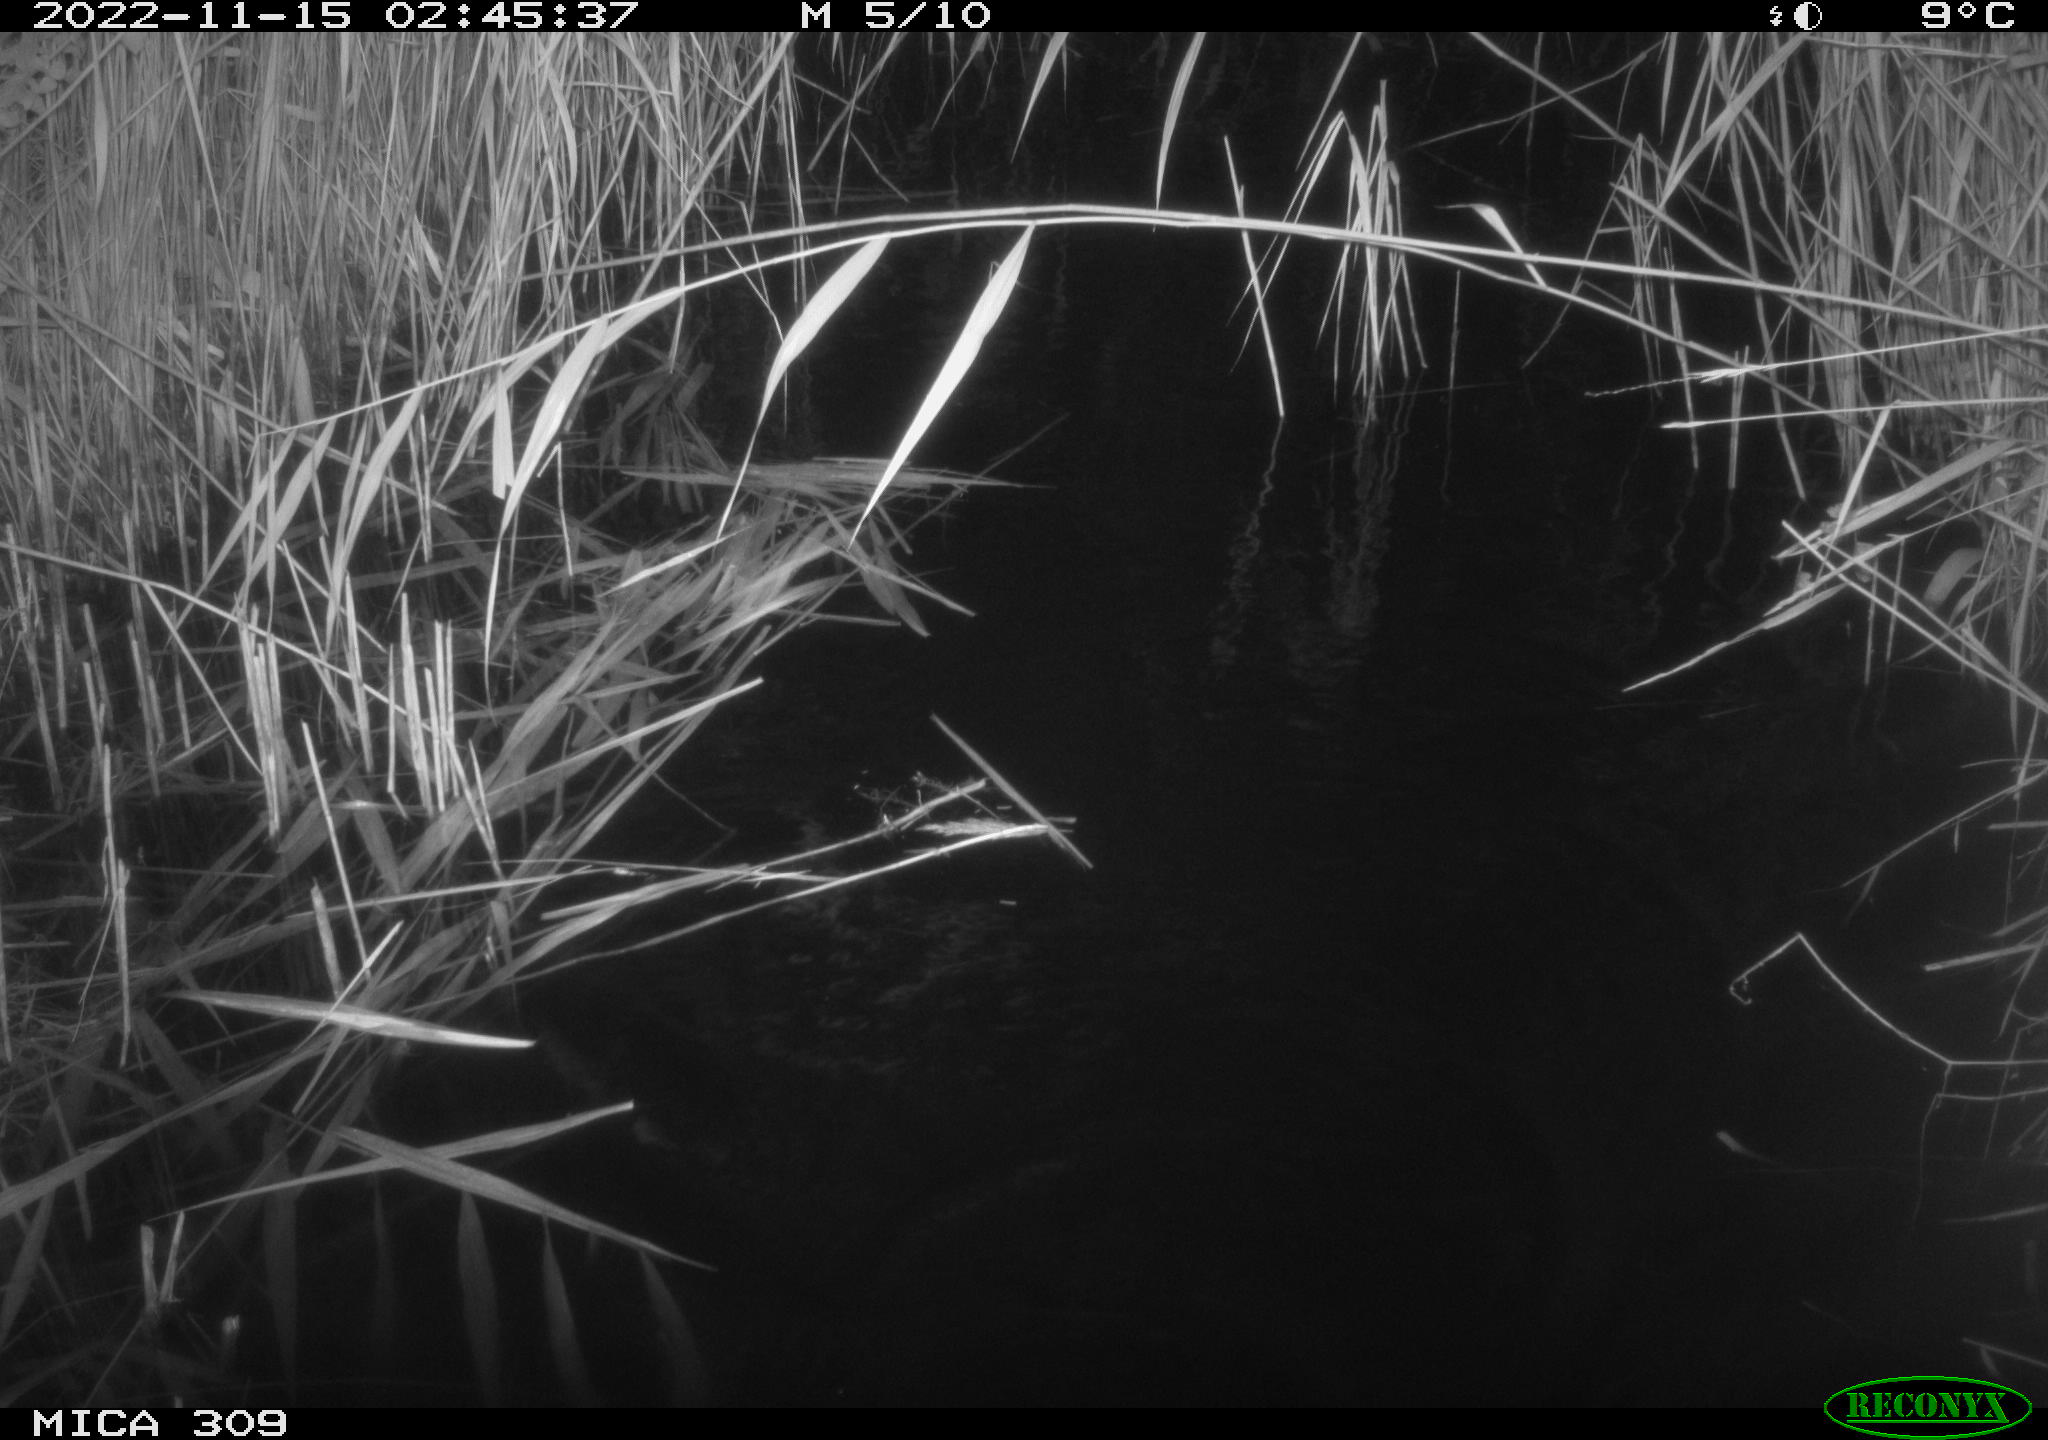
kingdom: Animalia
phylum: Chordata
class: Mammalia
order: Rodentia
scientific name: Rodentia
